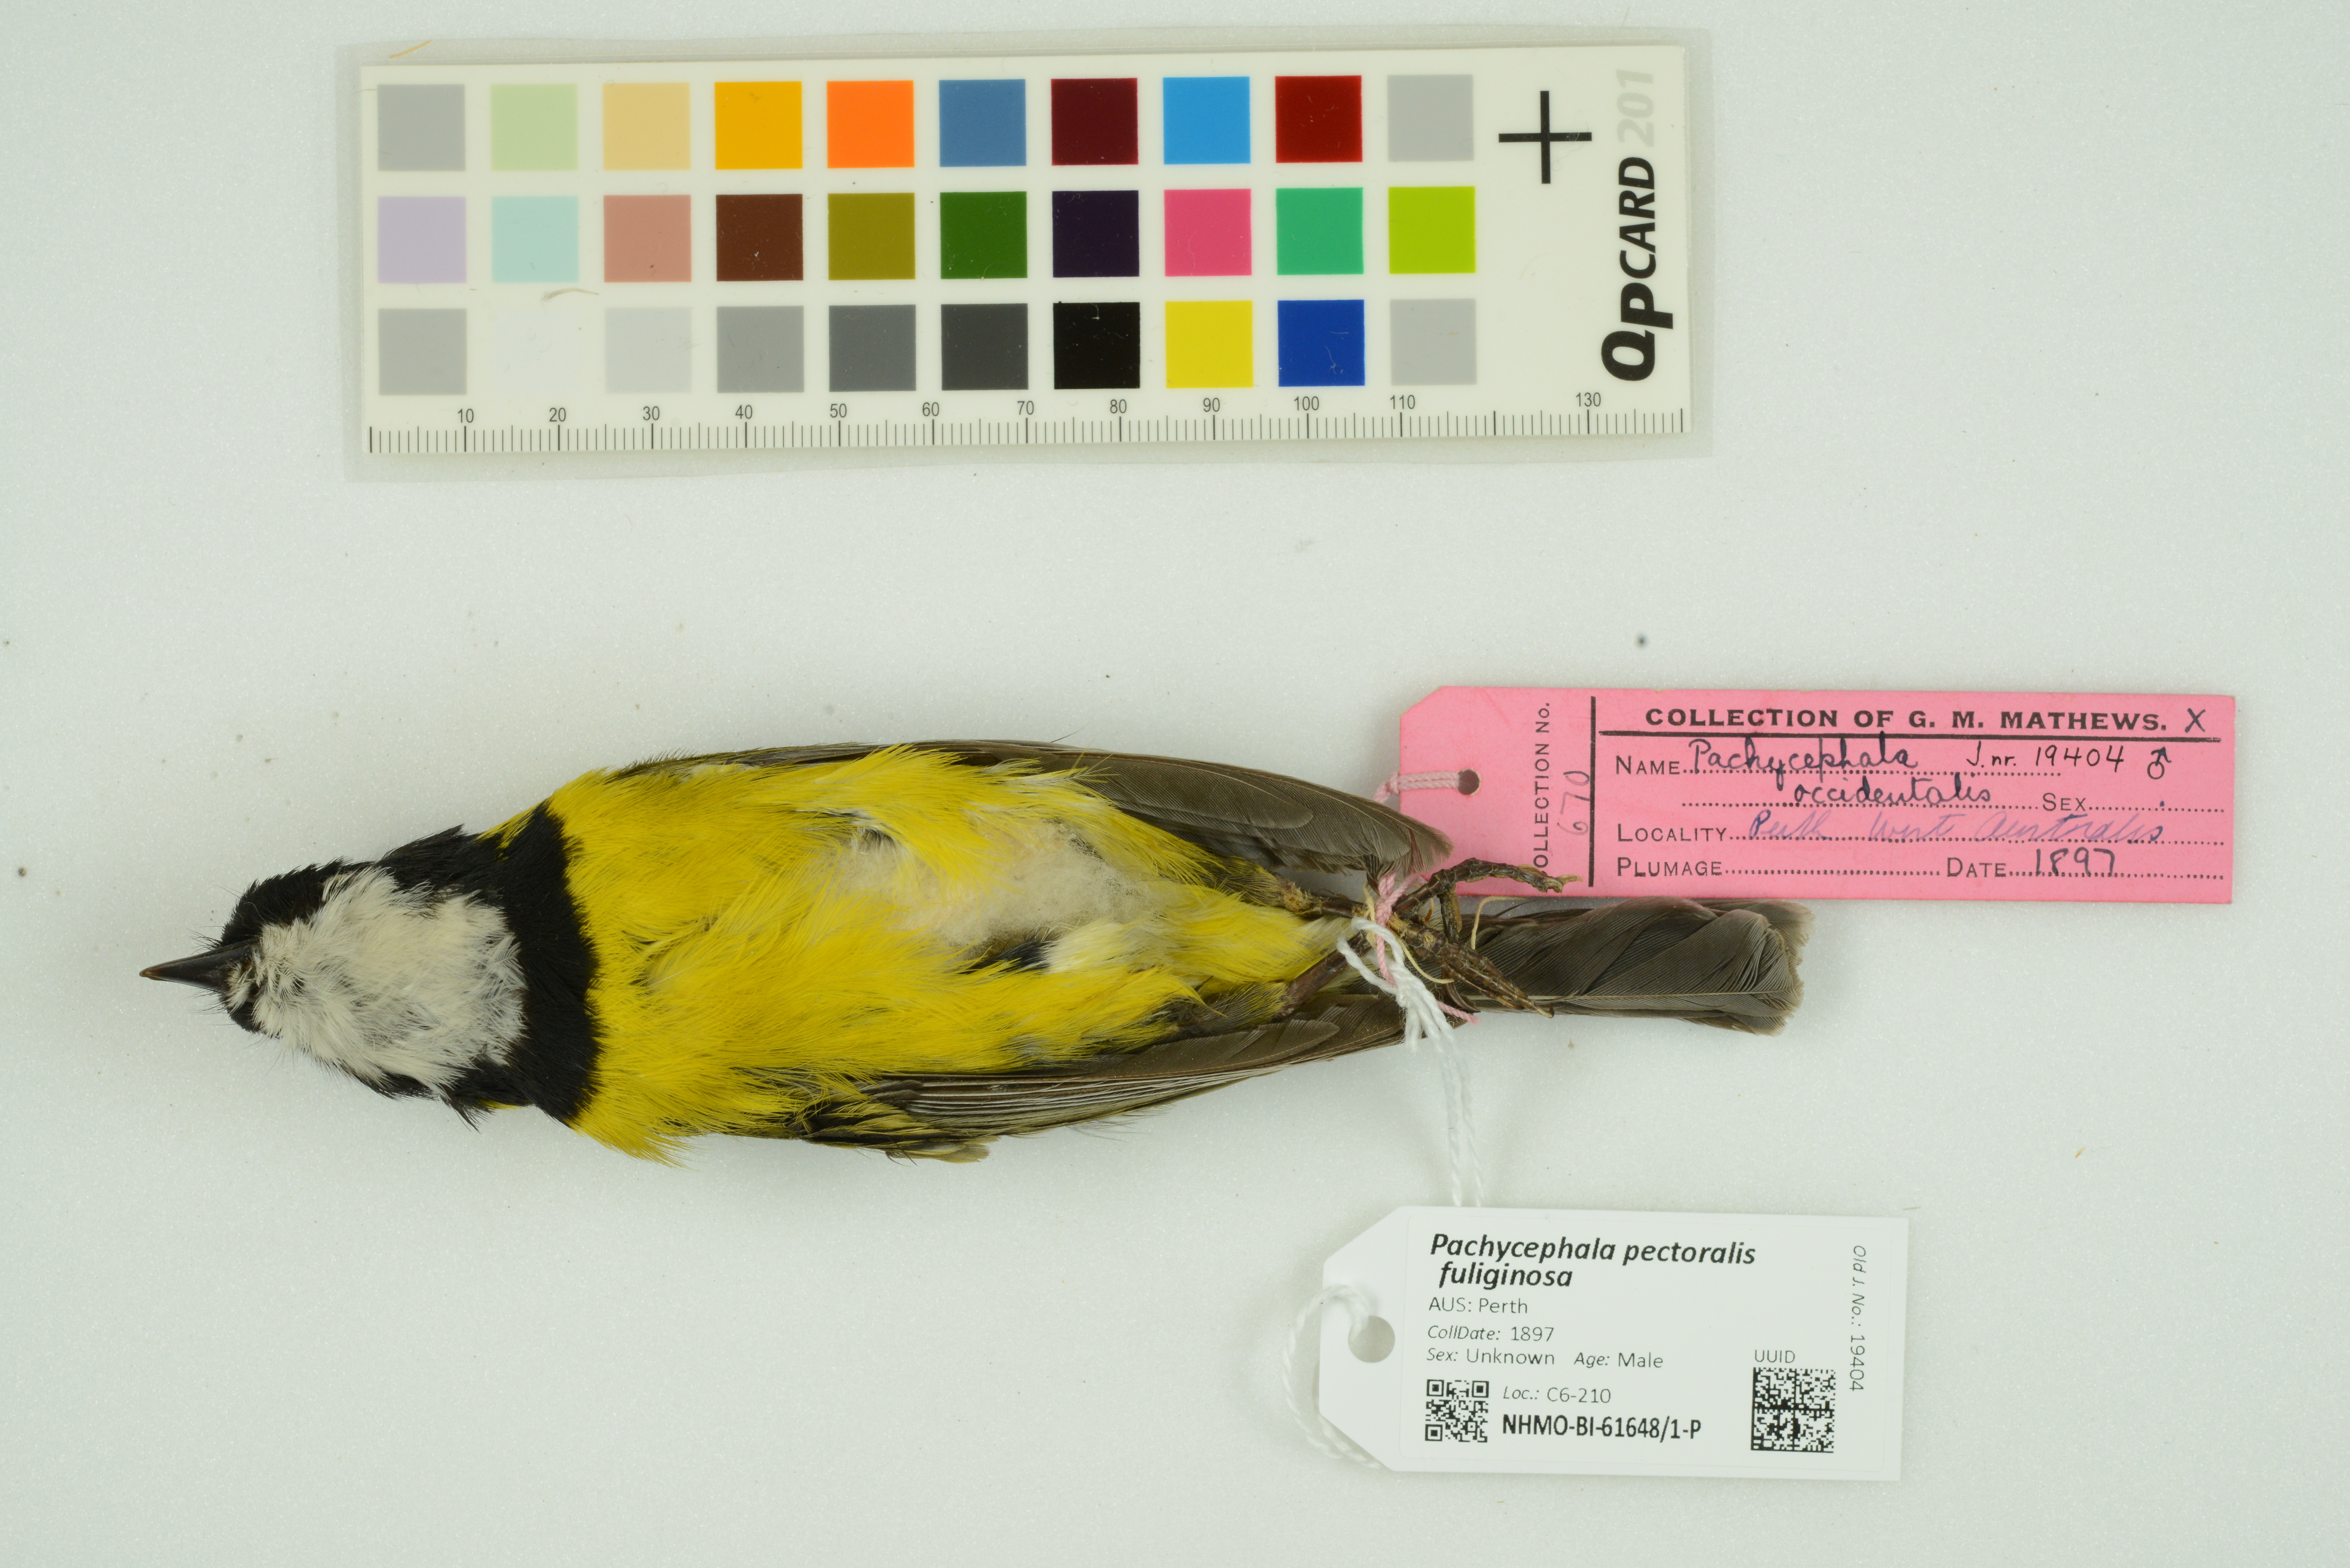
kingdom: Animalia
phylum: Chordata
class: Aves
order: Passeriformes
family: Pachycephalidae
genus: Pachycephala
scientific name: Pachycephala fuliginosa
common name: Western whistler
